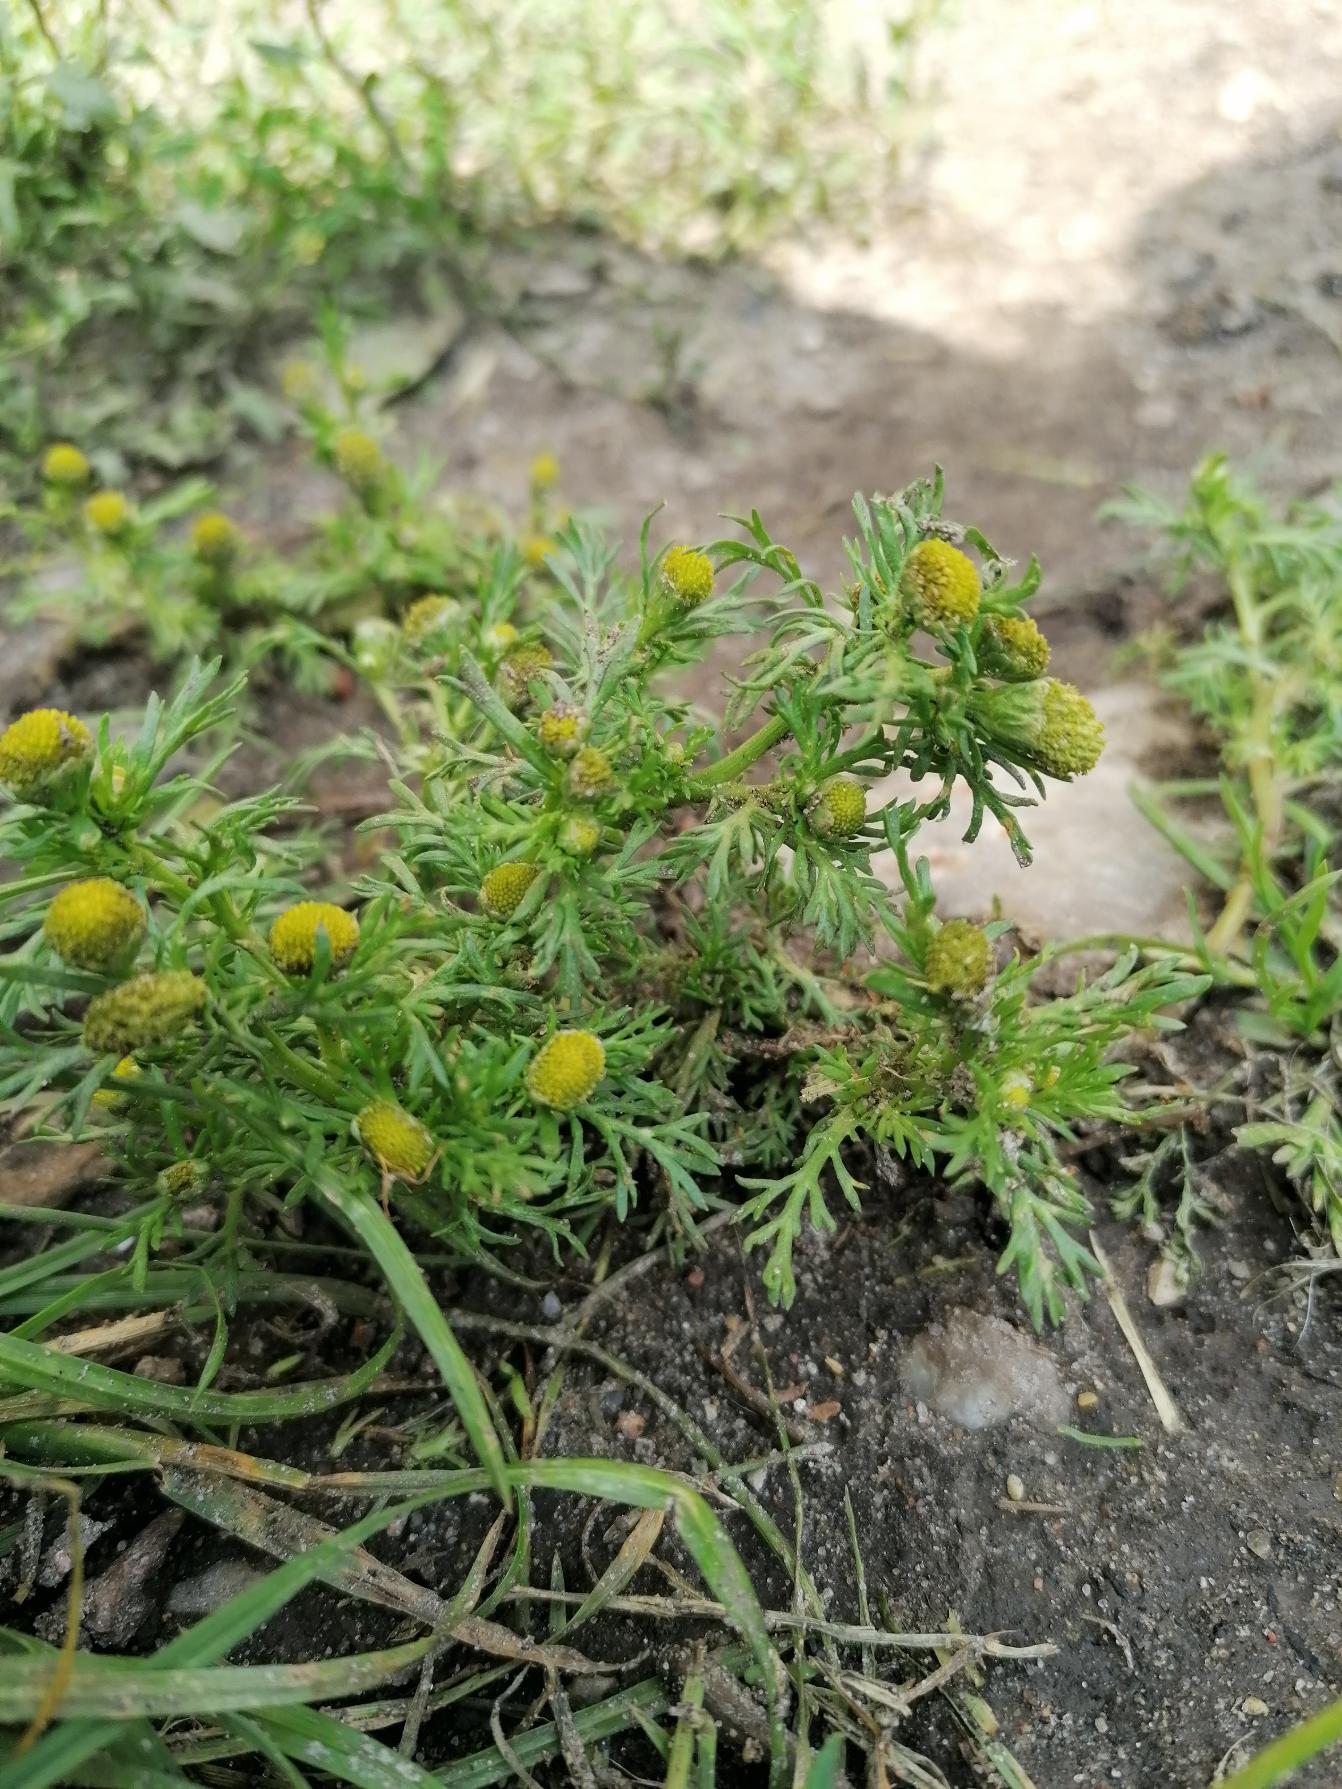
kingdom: Plantae
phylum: Tracheophyta
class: Magnoliopsida
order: Asterales
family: Asteraceae
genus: Matricaria
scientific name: Matricaria discoidea
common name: Skive-kamille
